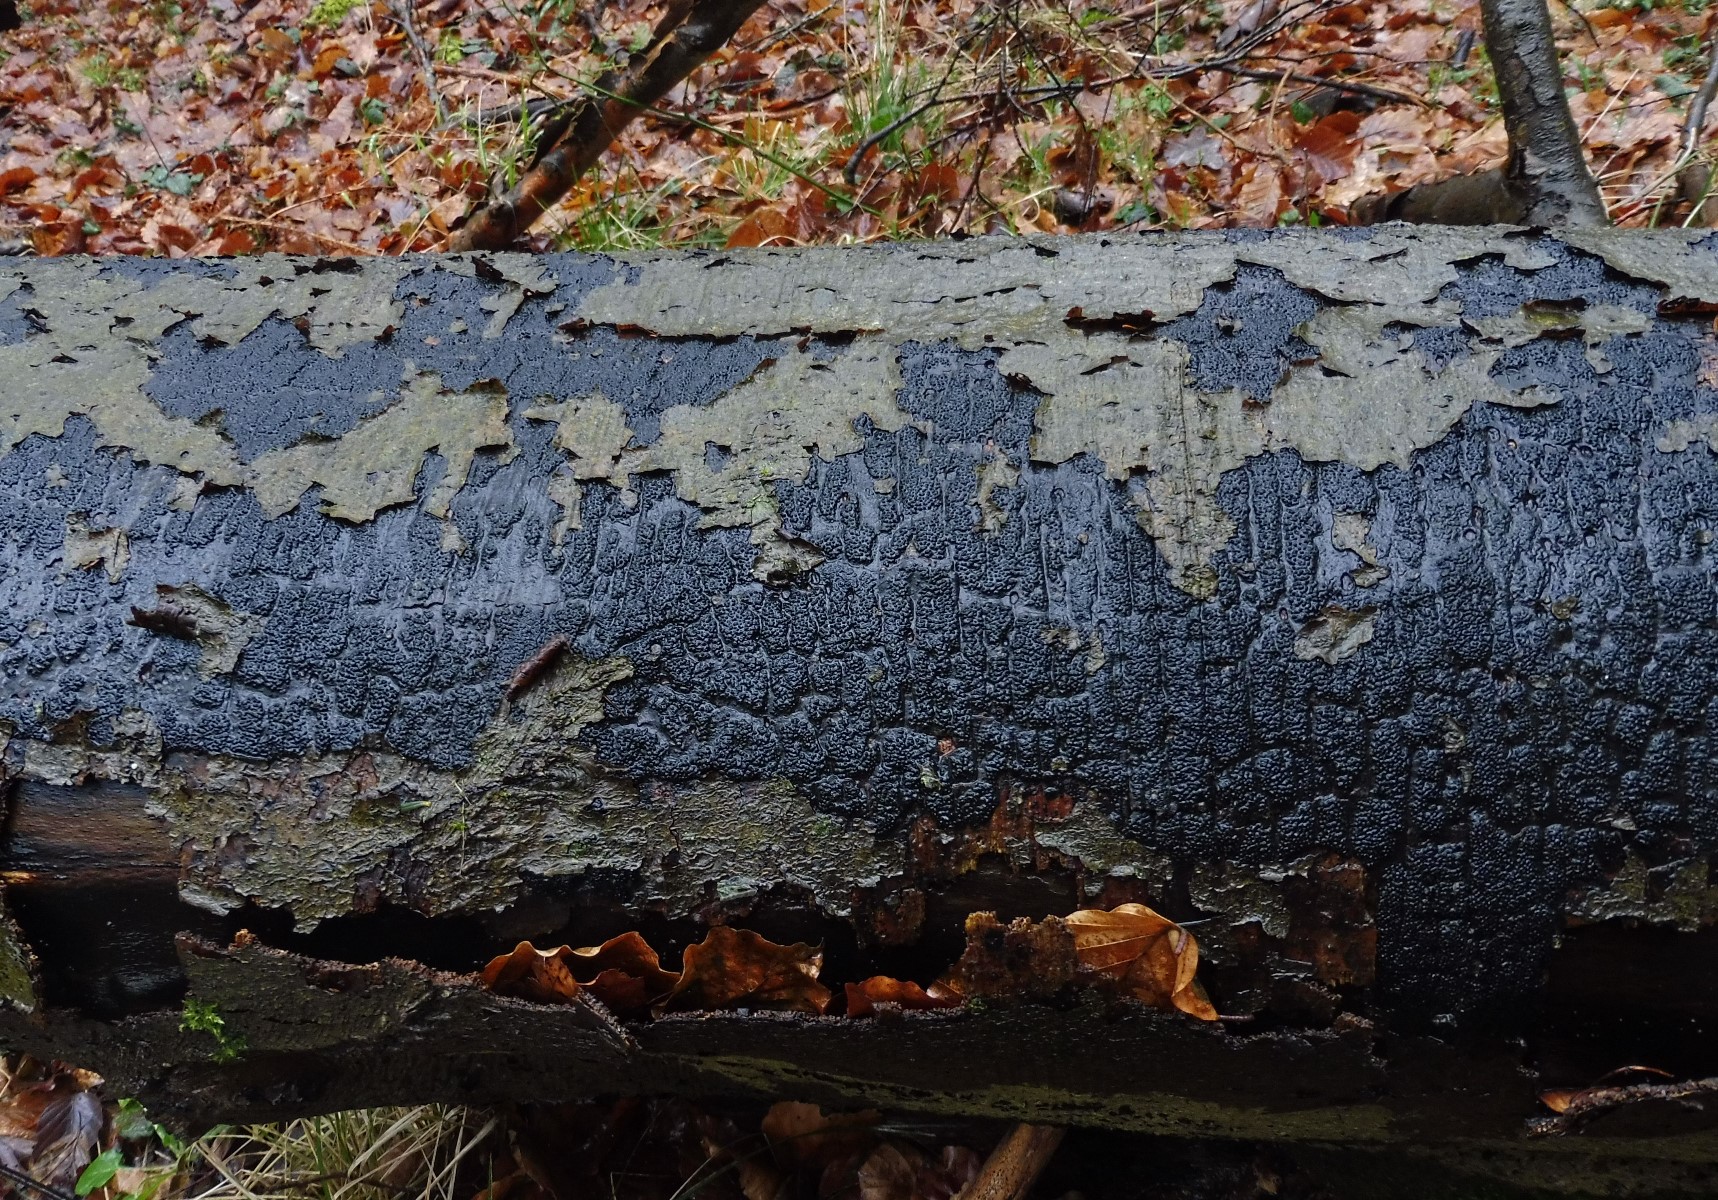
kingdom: Fungi
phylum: Ascomycota
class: Sordariomycetes
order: Xylariales
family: Diatrypaceae
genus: Eutypa
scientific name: Eutypa spinosa
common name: grov kulskorpe
